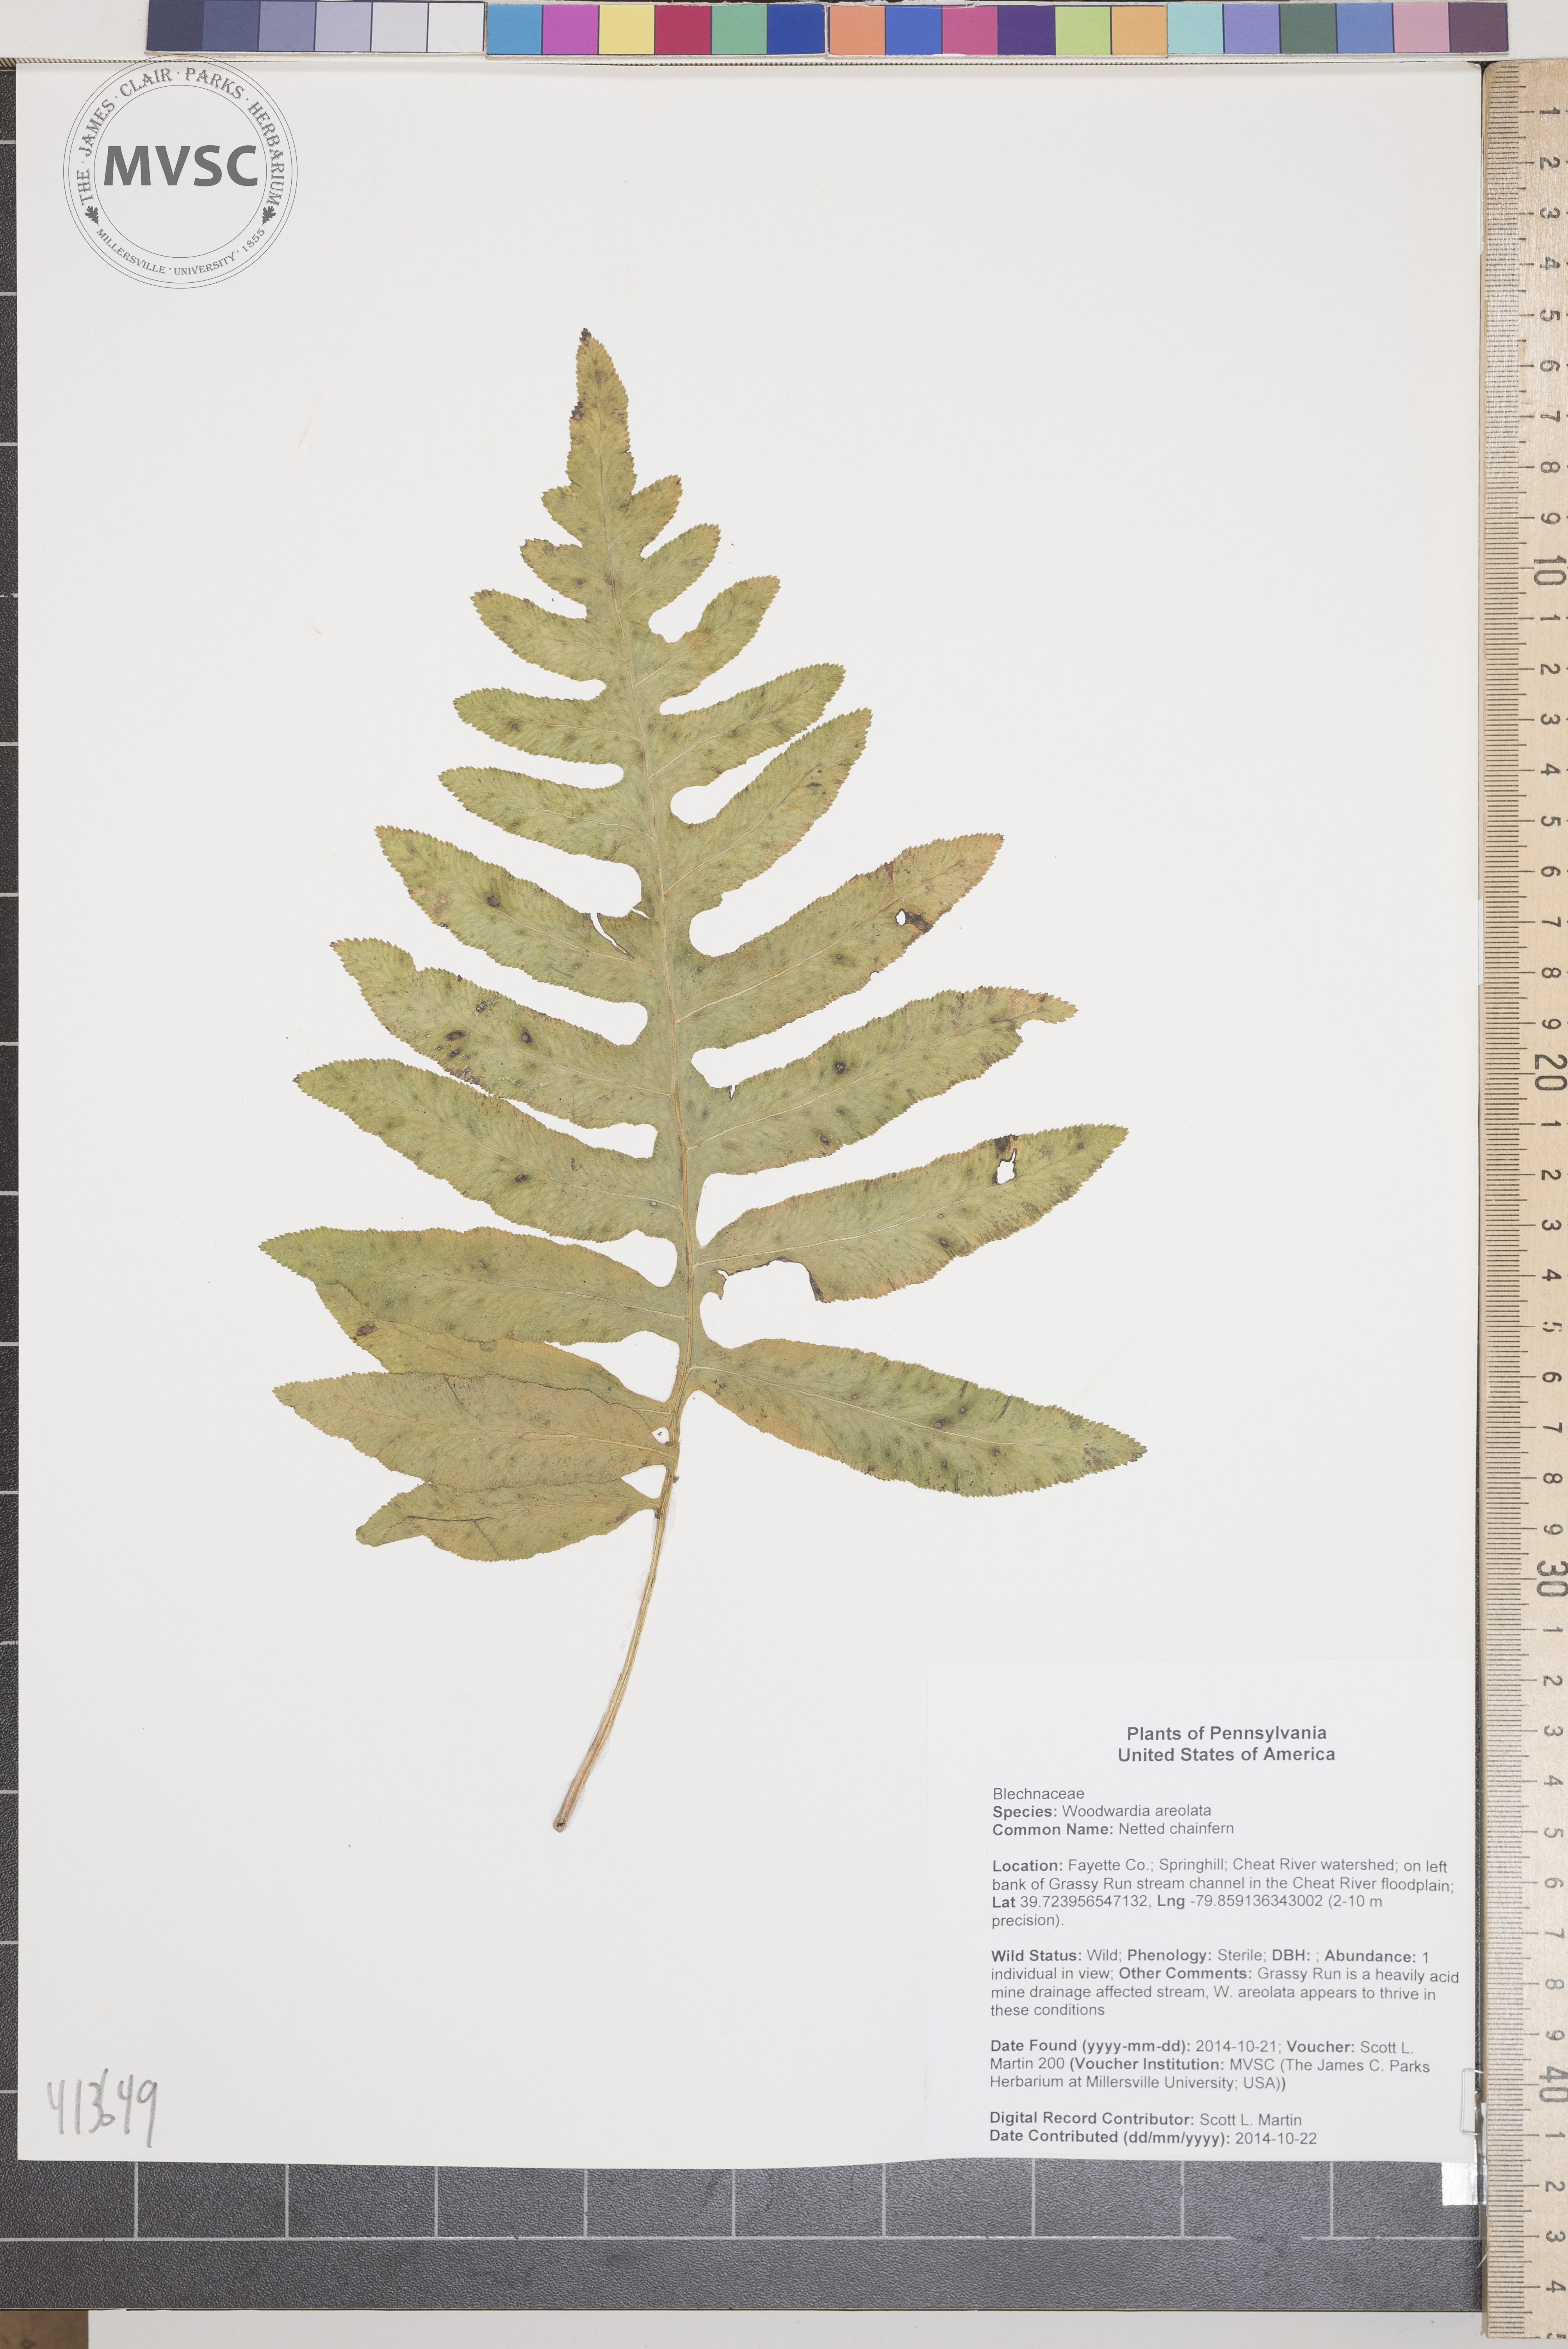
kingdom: Plantae
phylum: Tracheophyta
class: Polypodiopsida
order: Polypodiales
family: Blechnaceae
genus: Lorinseria
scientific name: Lorinseria areolata
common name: Netted chainfern
